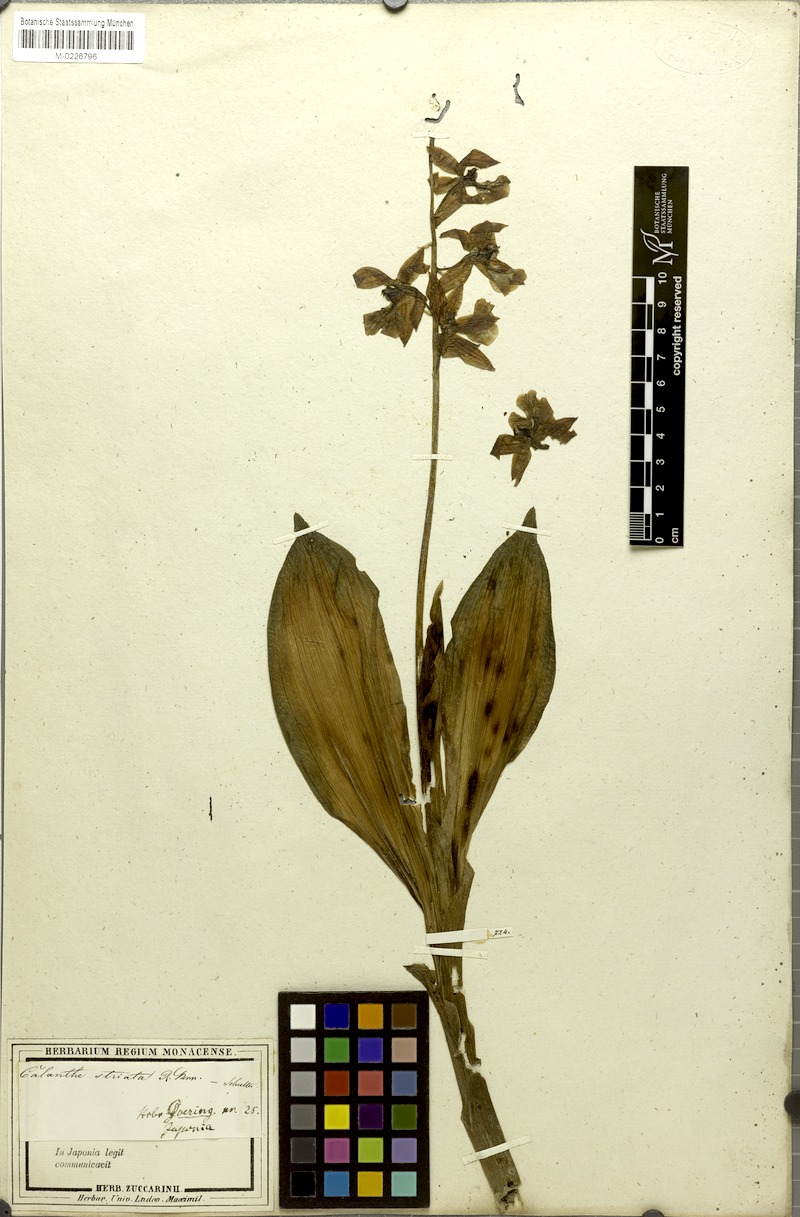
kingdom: Plantae
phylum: Tracheophyta
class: Liliopsida
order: Asparagales
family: Orchidaceae
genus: Calanthe
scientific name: Calanthe striata
